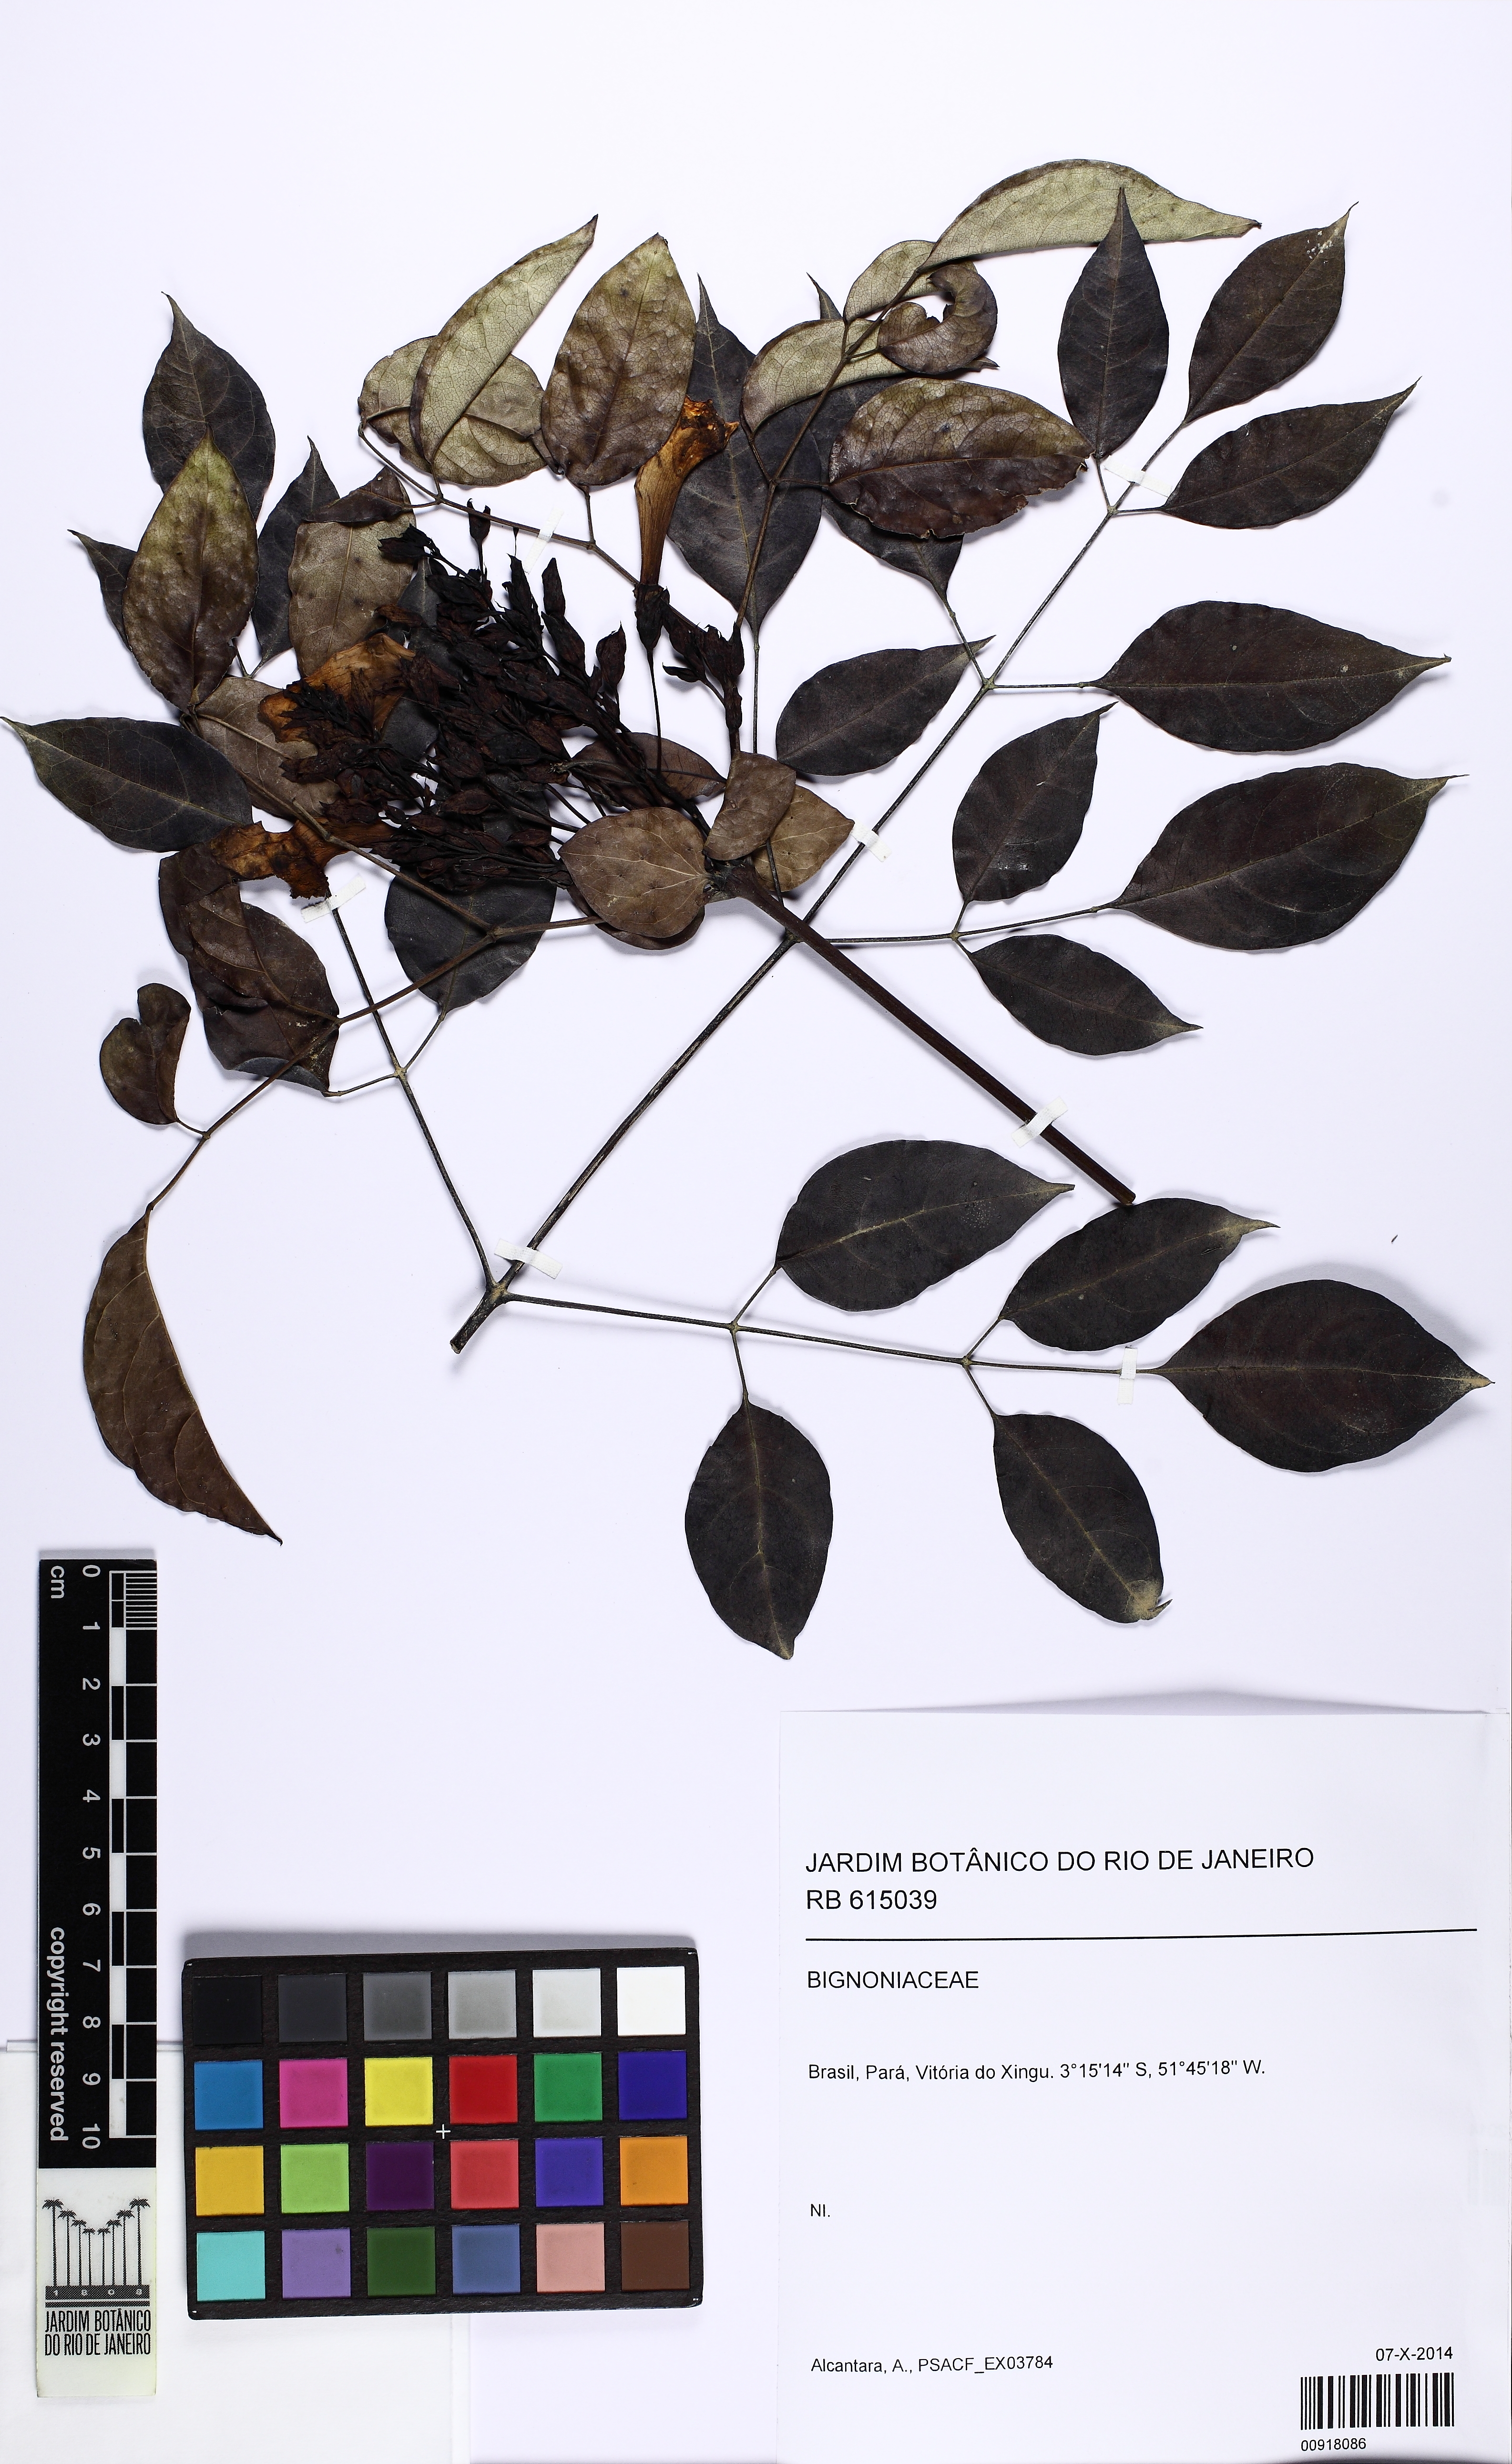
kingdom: Plantae
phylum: Tracheophyta
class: Magnoliopsida
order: Lamiales
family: Bignoniaceae
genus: Adenocalymma
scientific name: Adenocalymma
